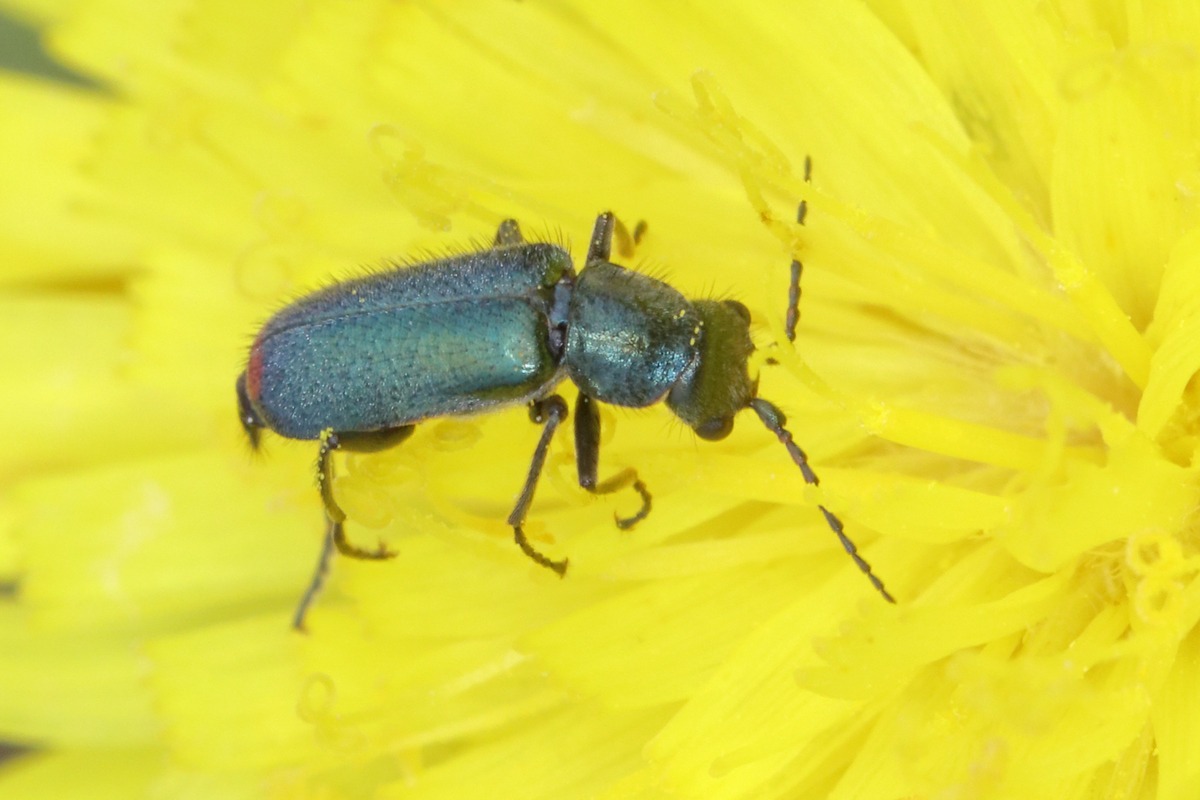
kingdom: Animalia
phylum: Arthropoda
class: Insecta
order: Coleoptera
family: Malachiidae
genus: Cordylepherus
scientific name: Cordylepherus viridis
